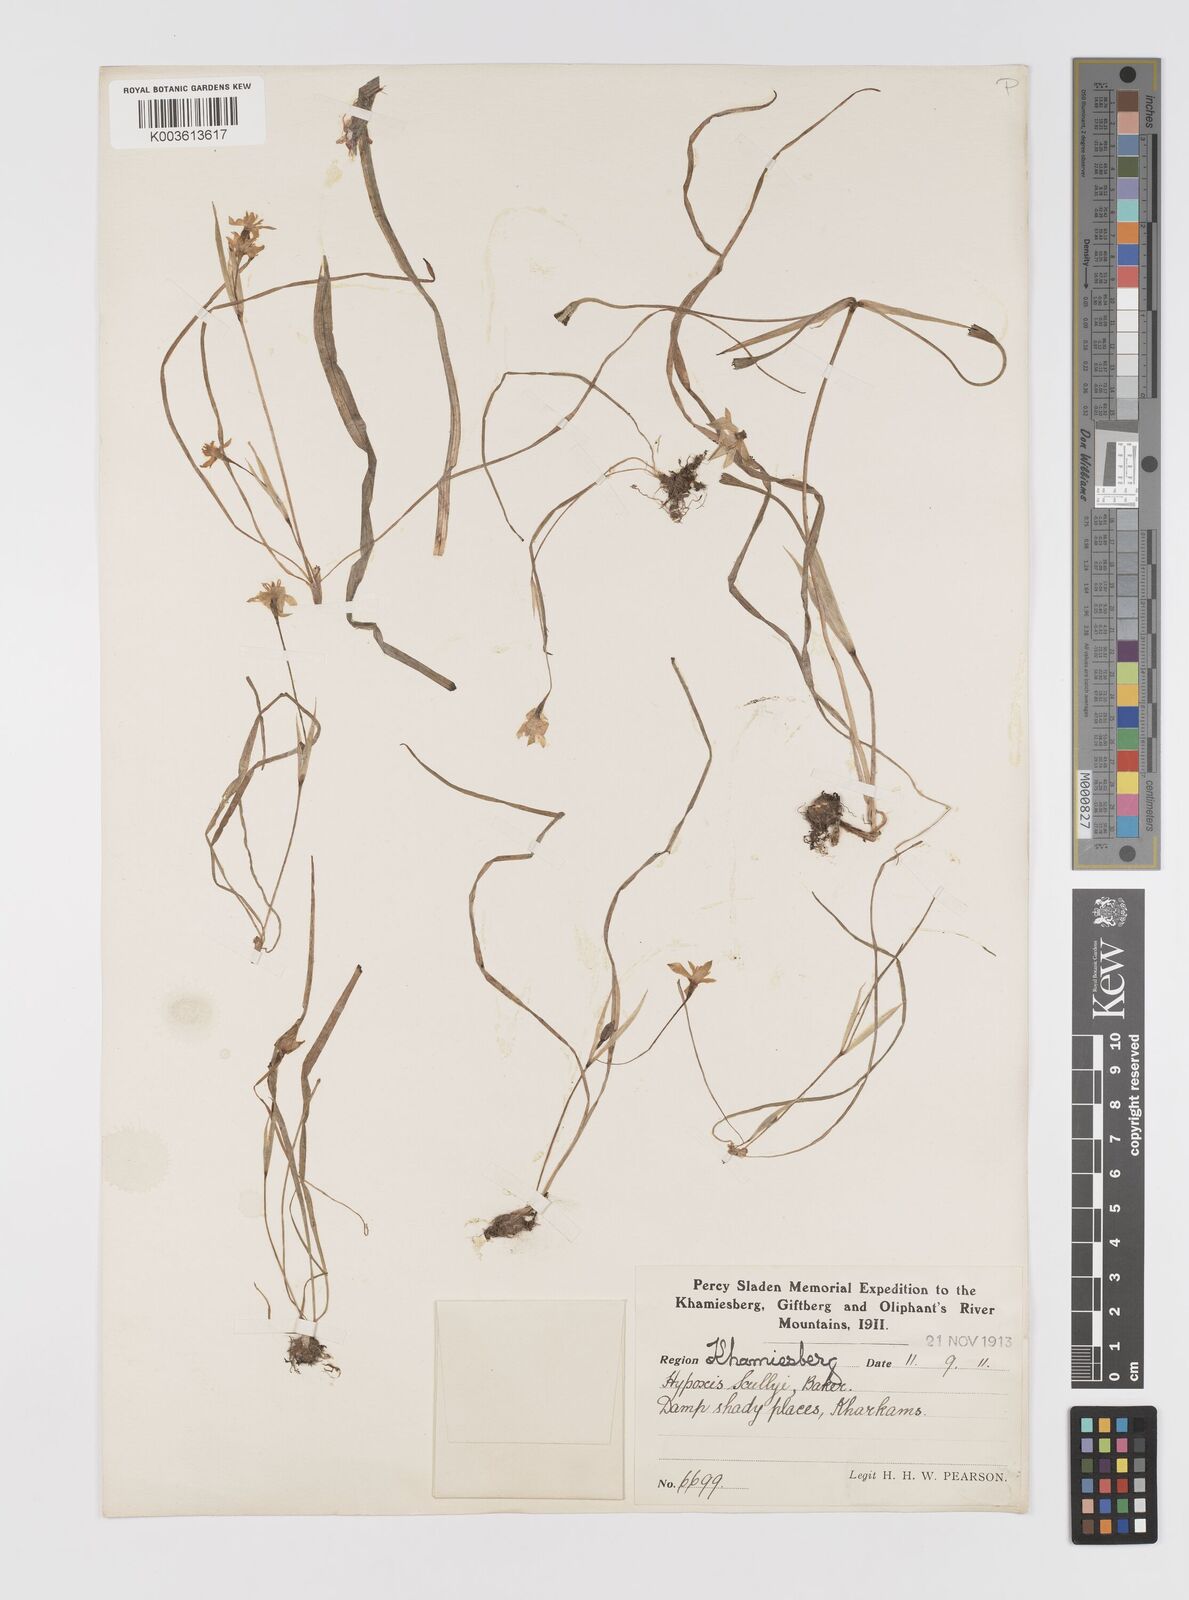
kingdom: Plantae
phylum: Tracheophyta
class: Liliopsida
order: Asparagales
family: Hypoxidaceae
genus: Pauridia
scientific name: Pauridia scullyi
